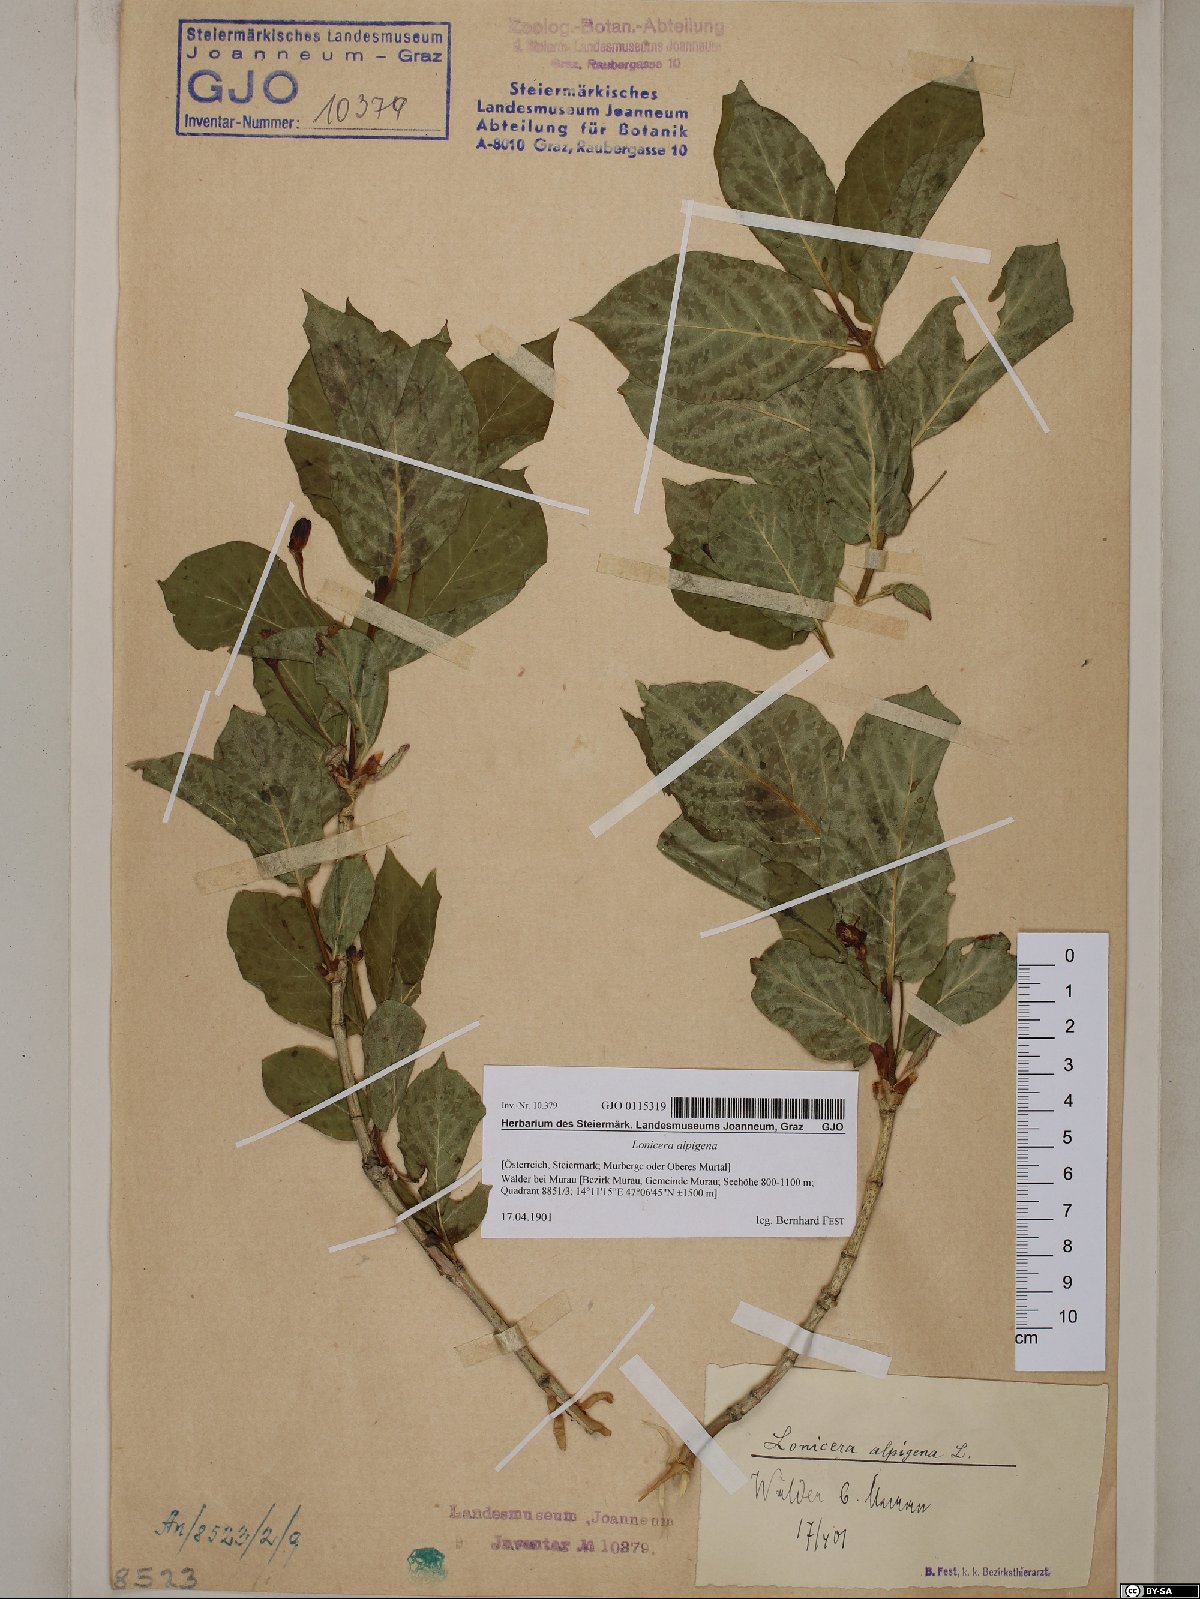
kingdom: Plantae
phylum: Tracheophyta
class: Magnoliopsida
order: Dipsacales
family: Caprifoliaceae
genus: Lonicera
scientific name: Lonicera alpigena
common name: Alpine honeysuckle
